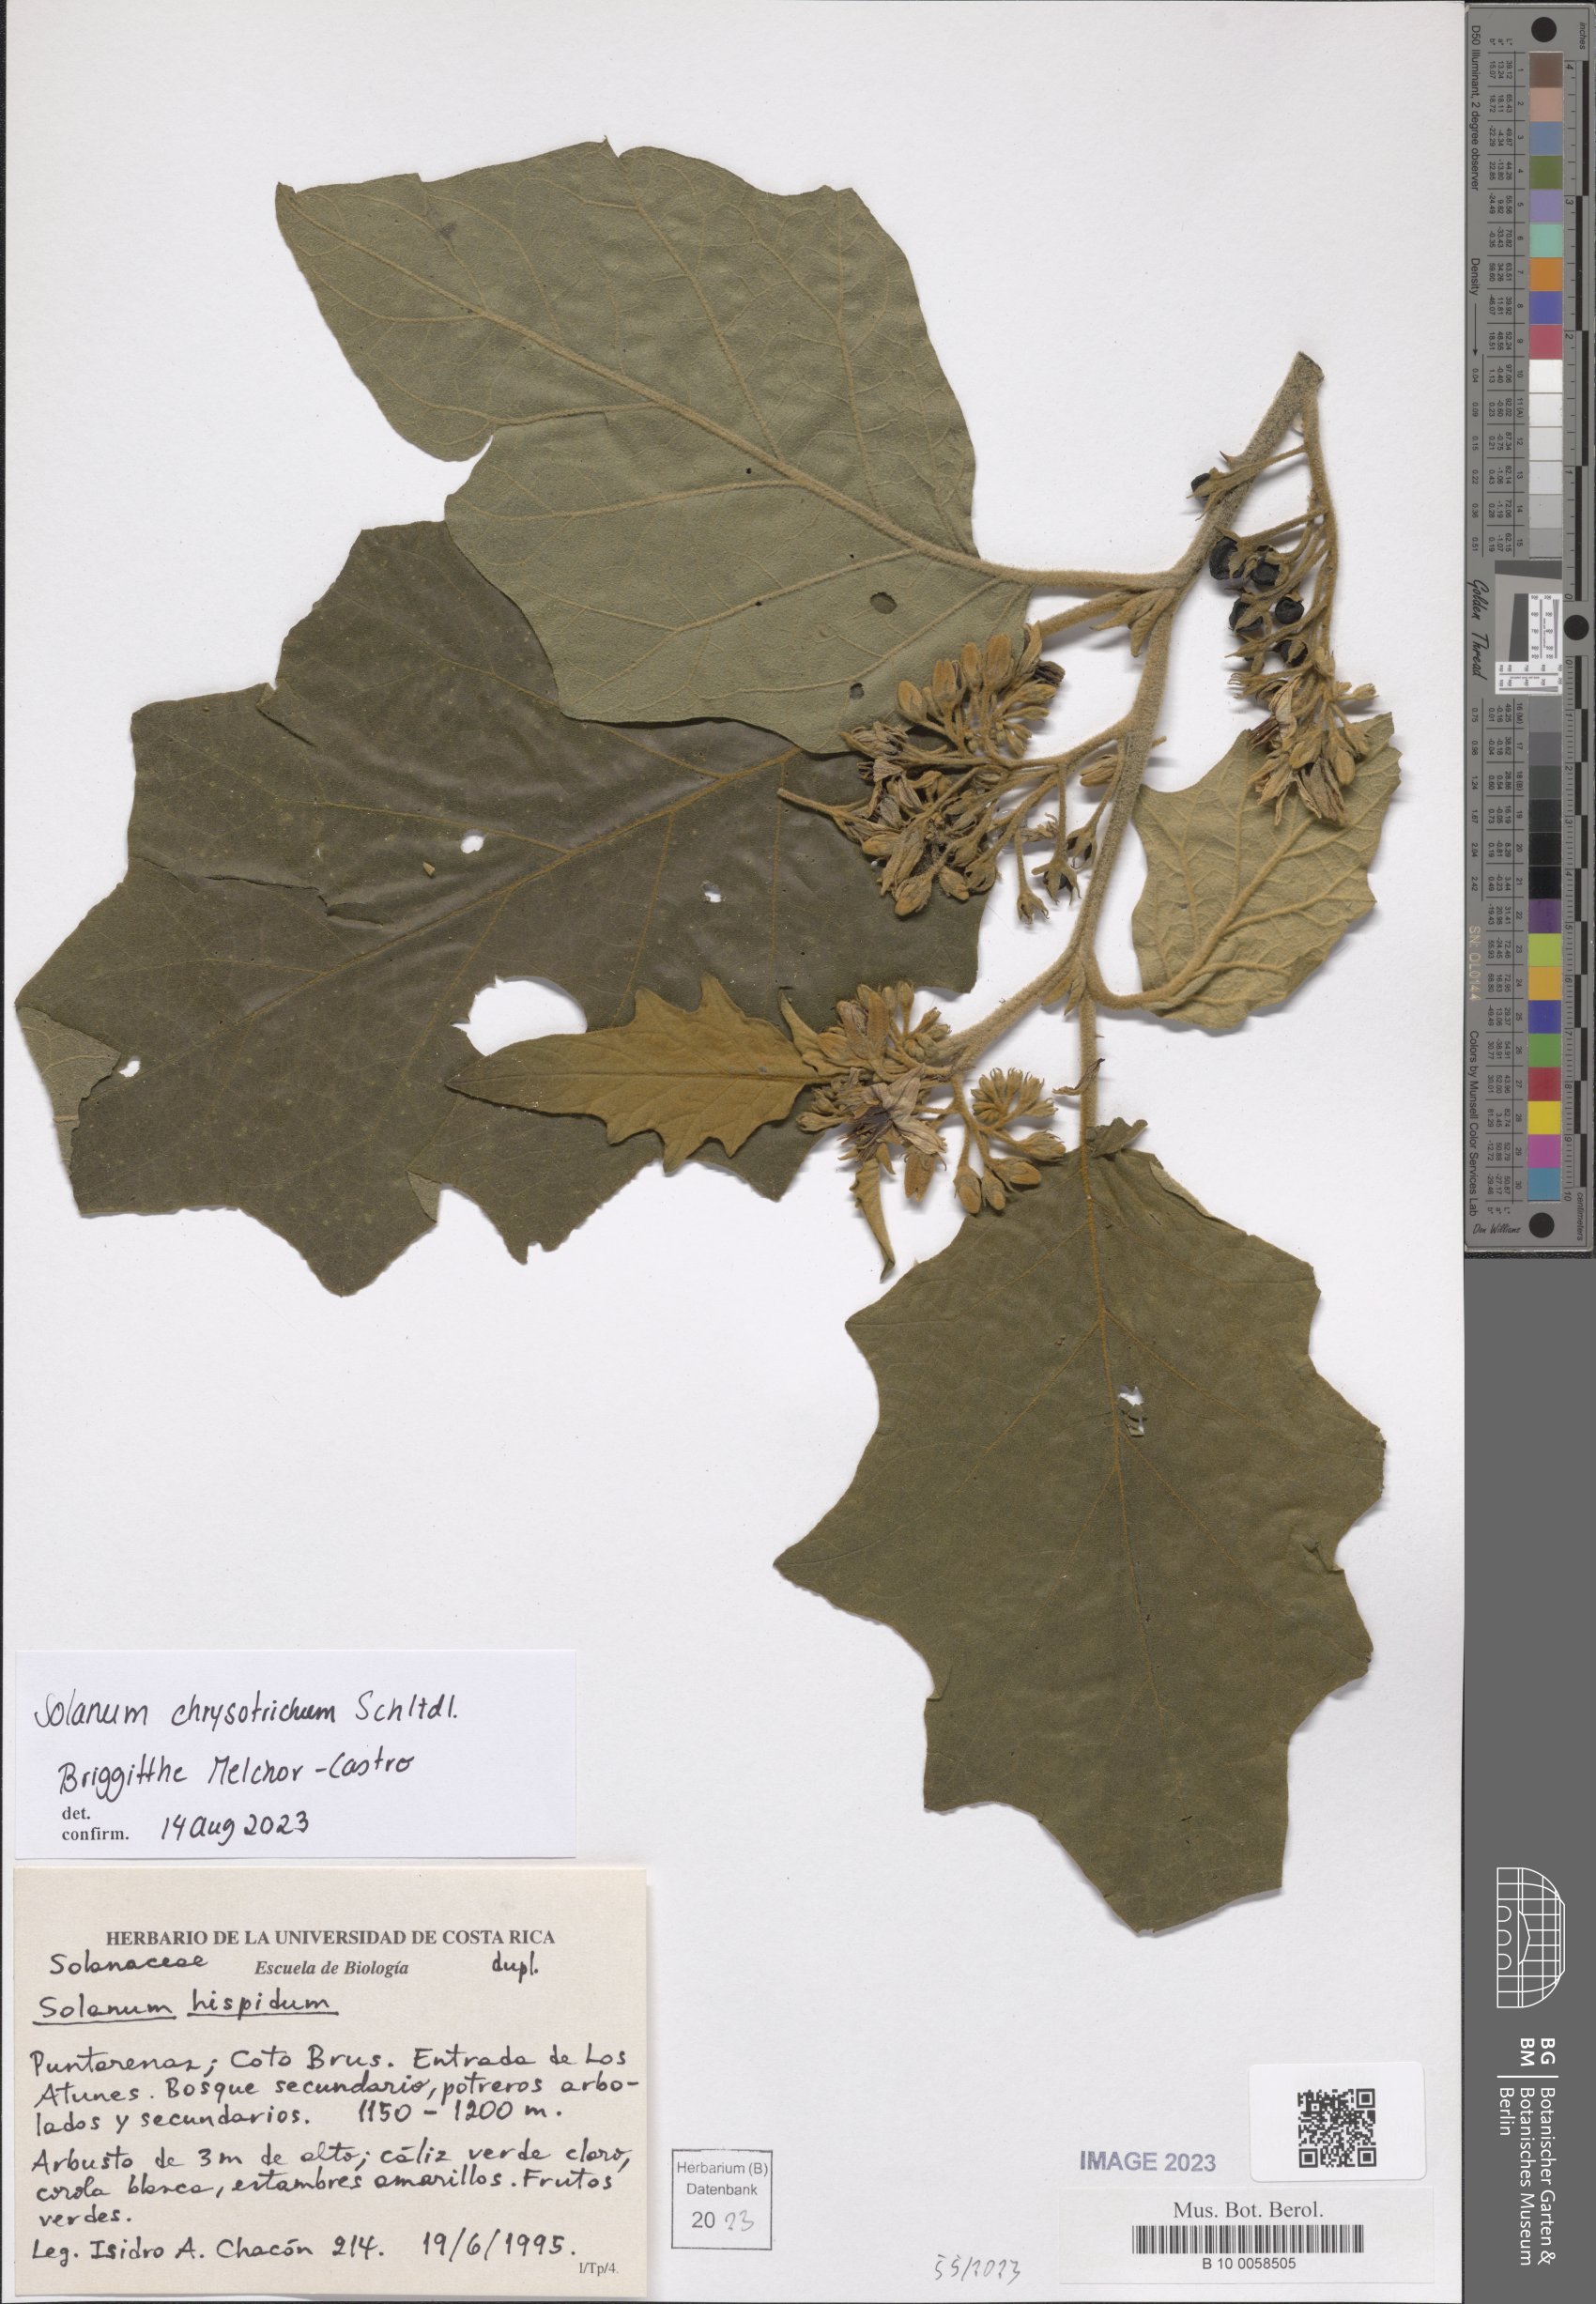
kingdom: Plantae
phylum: Tracheophyta
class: Magnoliopsida
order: Solanales
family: Solanaceae
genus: Solanum
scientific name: Solanum chrysotrichum
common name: Nightshade
